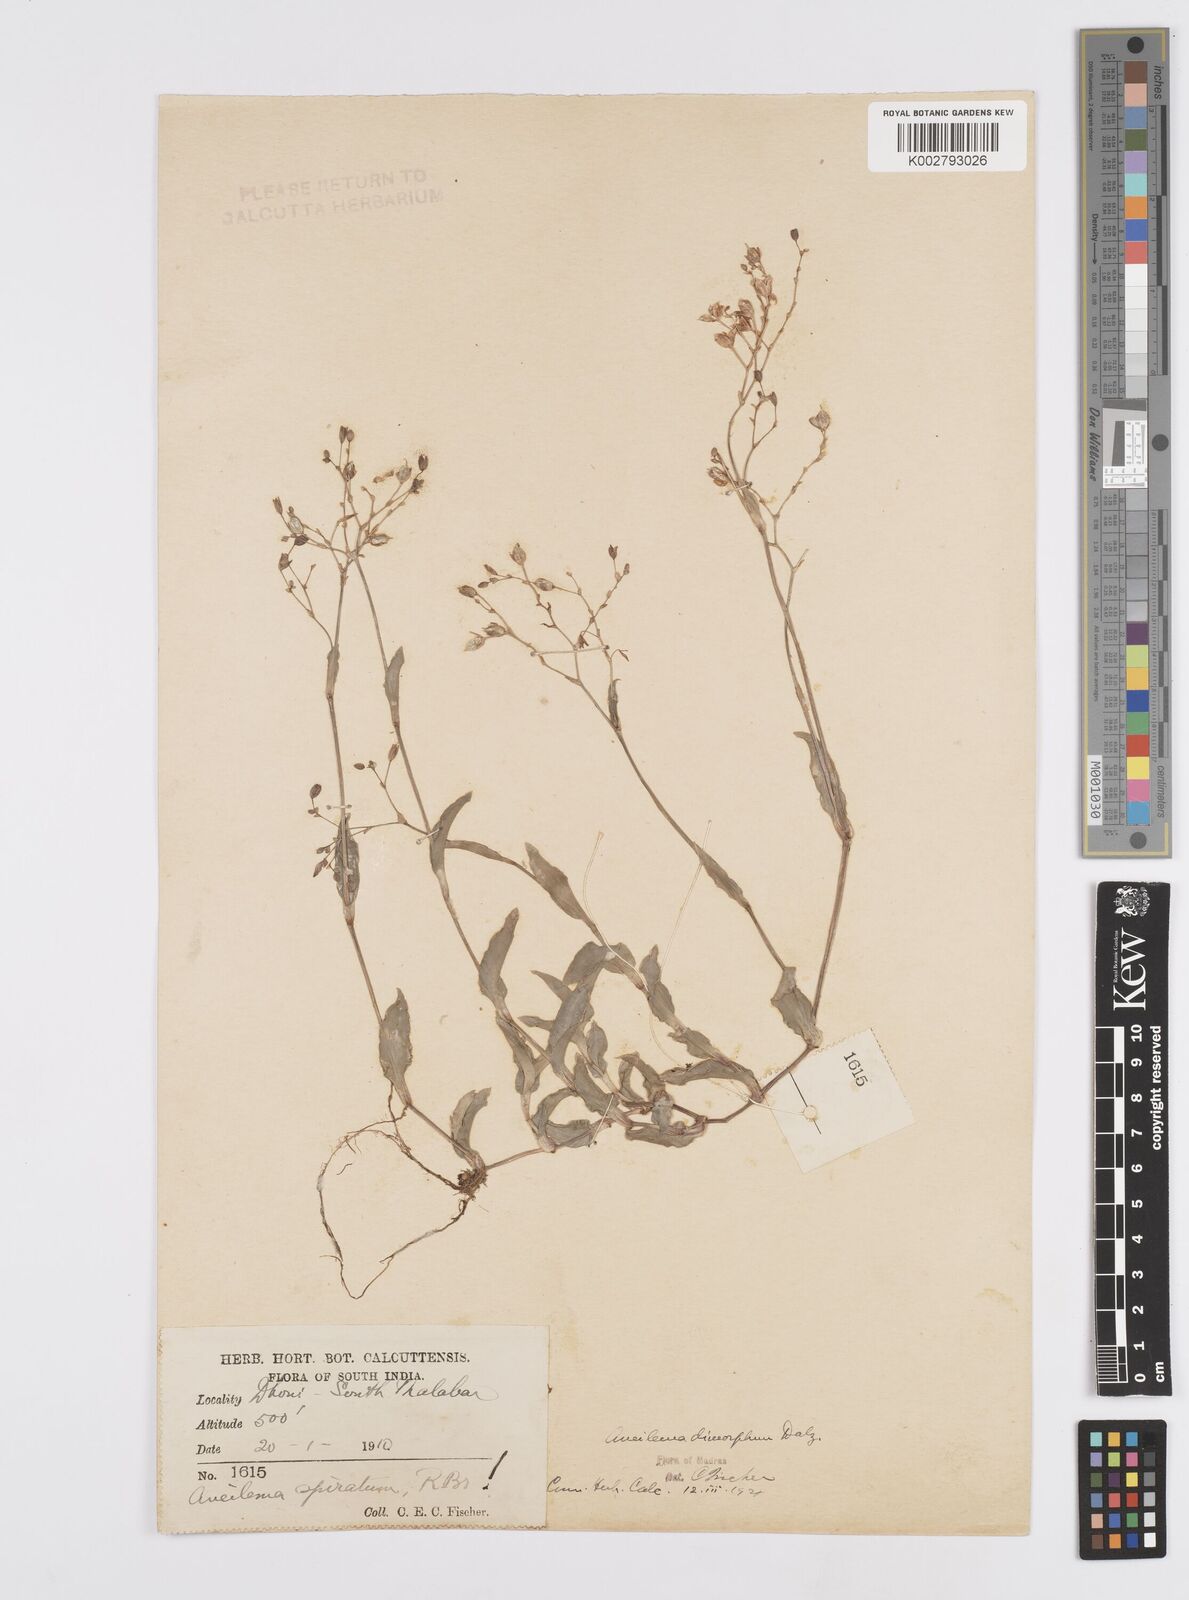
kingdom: Plantae
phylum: Tracheophyta
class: Liliopsida
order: Commelinales
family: Commelinaceae
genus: Murdannia
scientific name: Murdannia dimorpha
